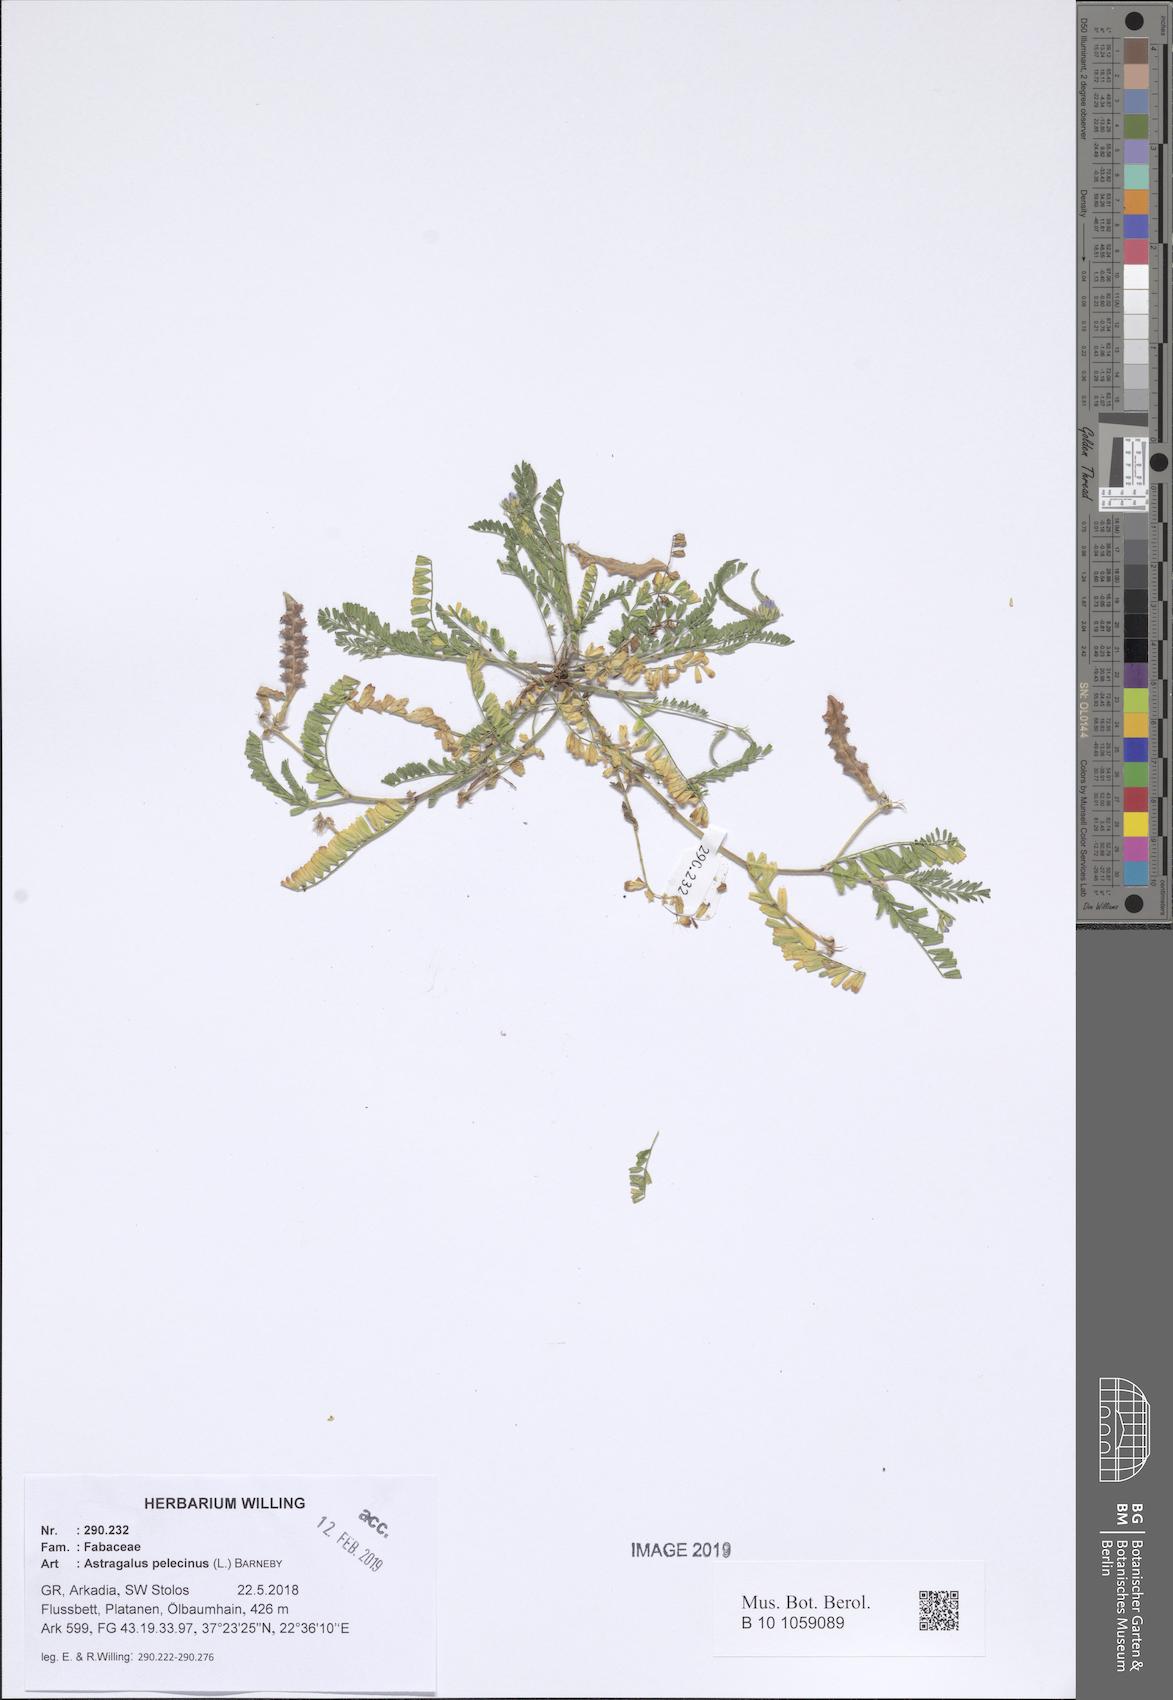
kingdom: Plantae
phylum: Tracheophyta
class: Magnoliopsida
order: Fabales
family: Fabaceae
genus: Biserrula
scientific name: Biserrula pelecinus
